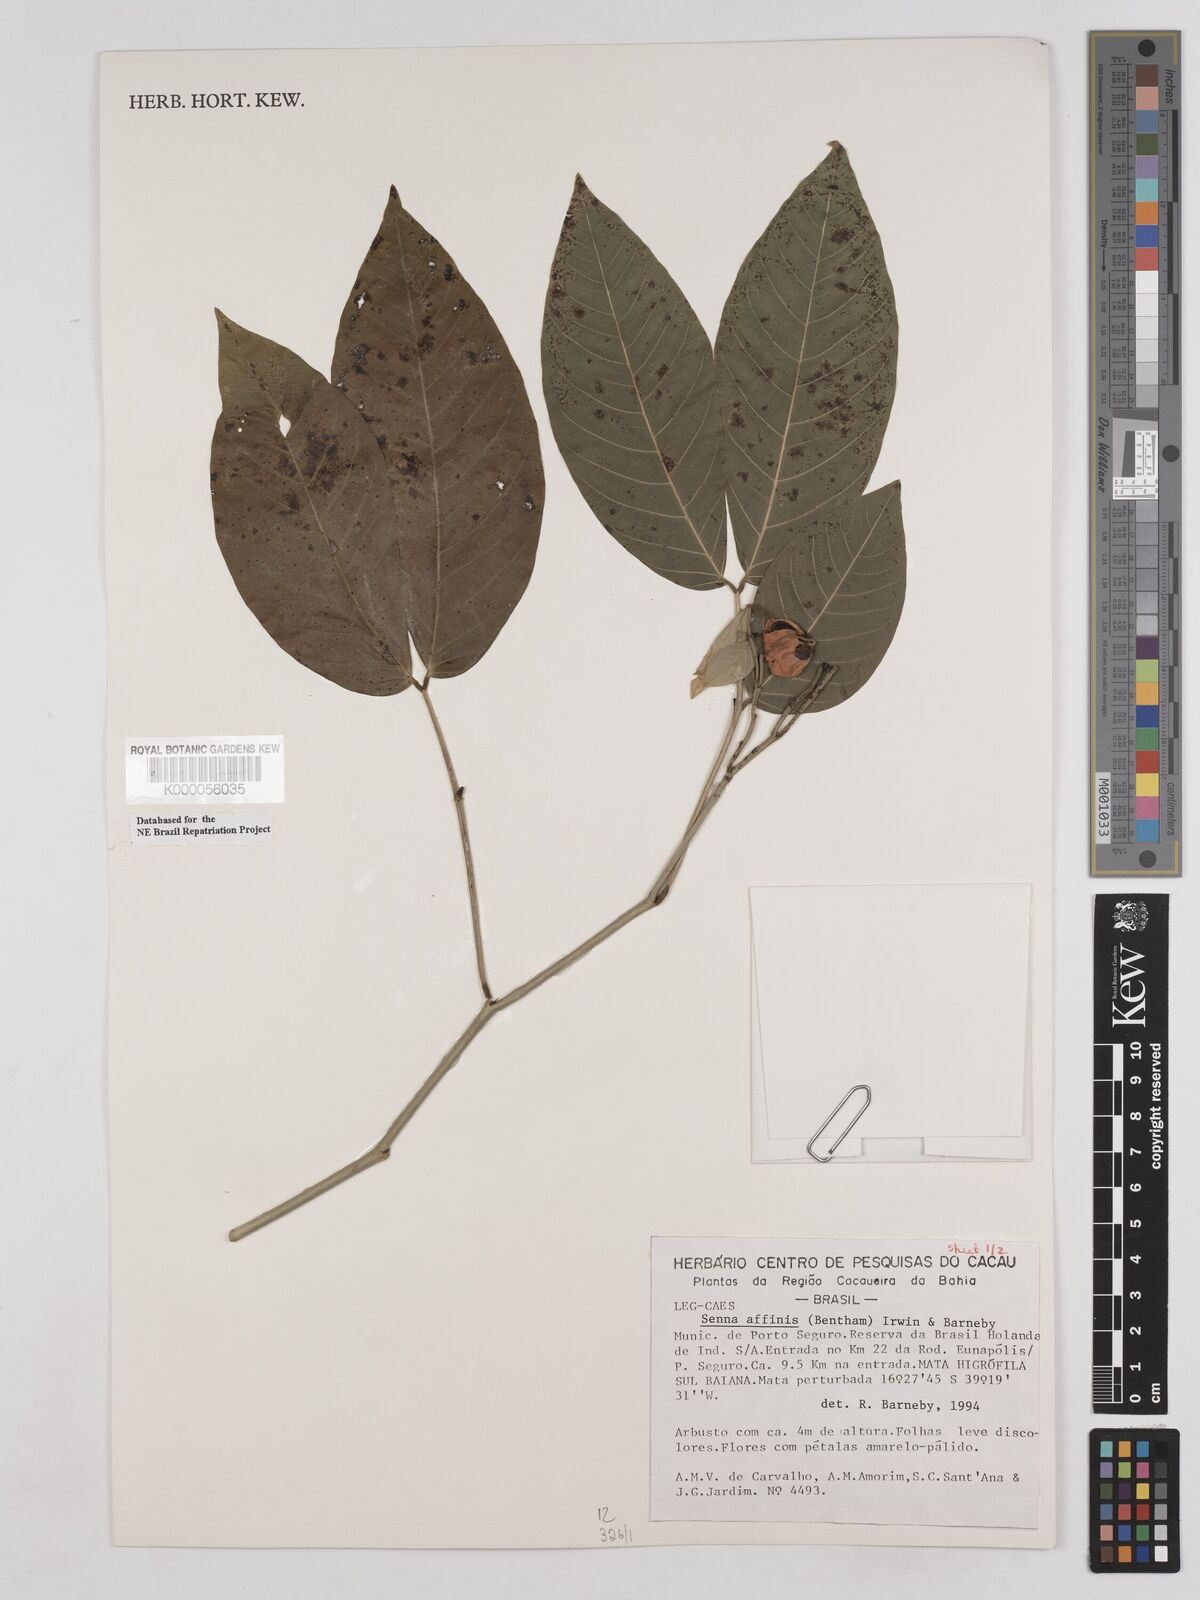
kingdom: Plantae
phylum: Tracheophyta
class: Magnoliopsida
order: Fabales
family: Fabaceae
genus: Senna
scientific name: Senna affinis
